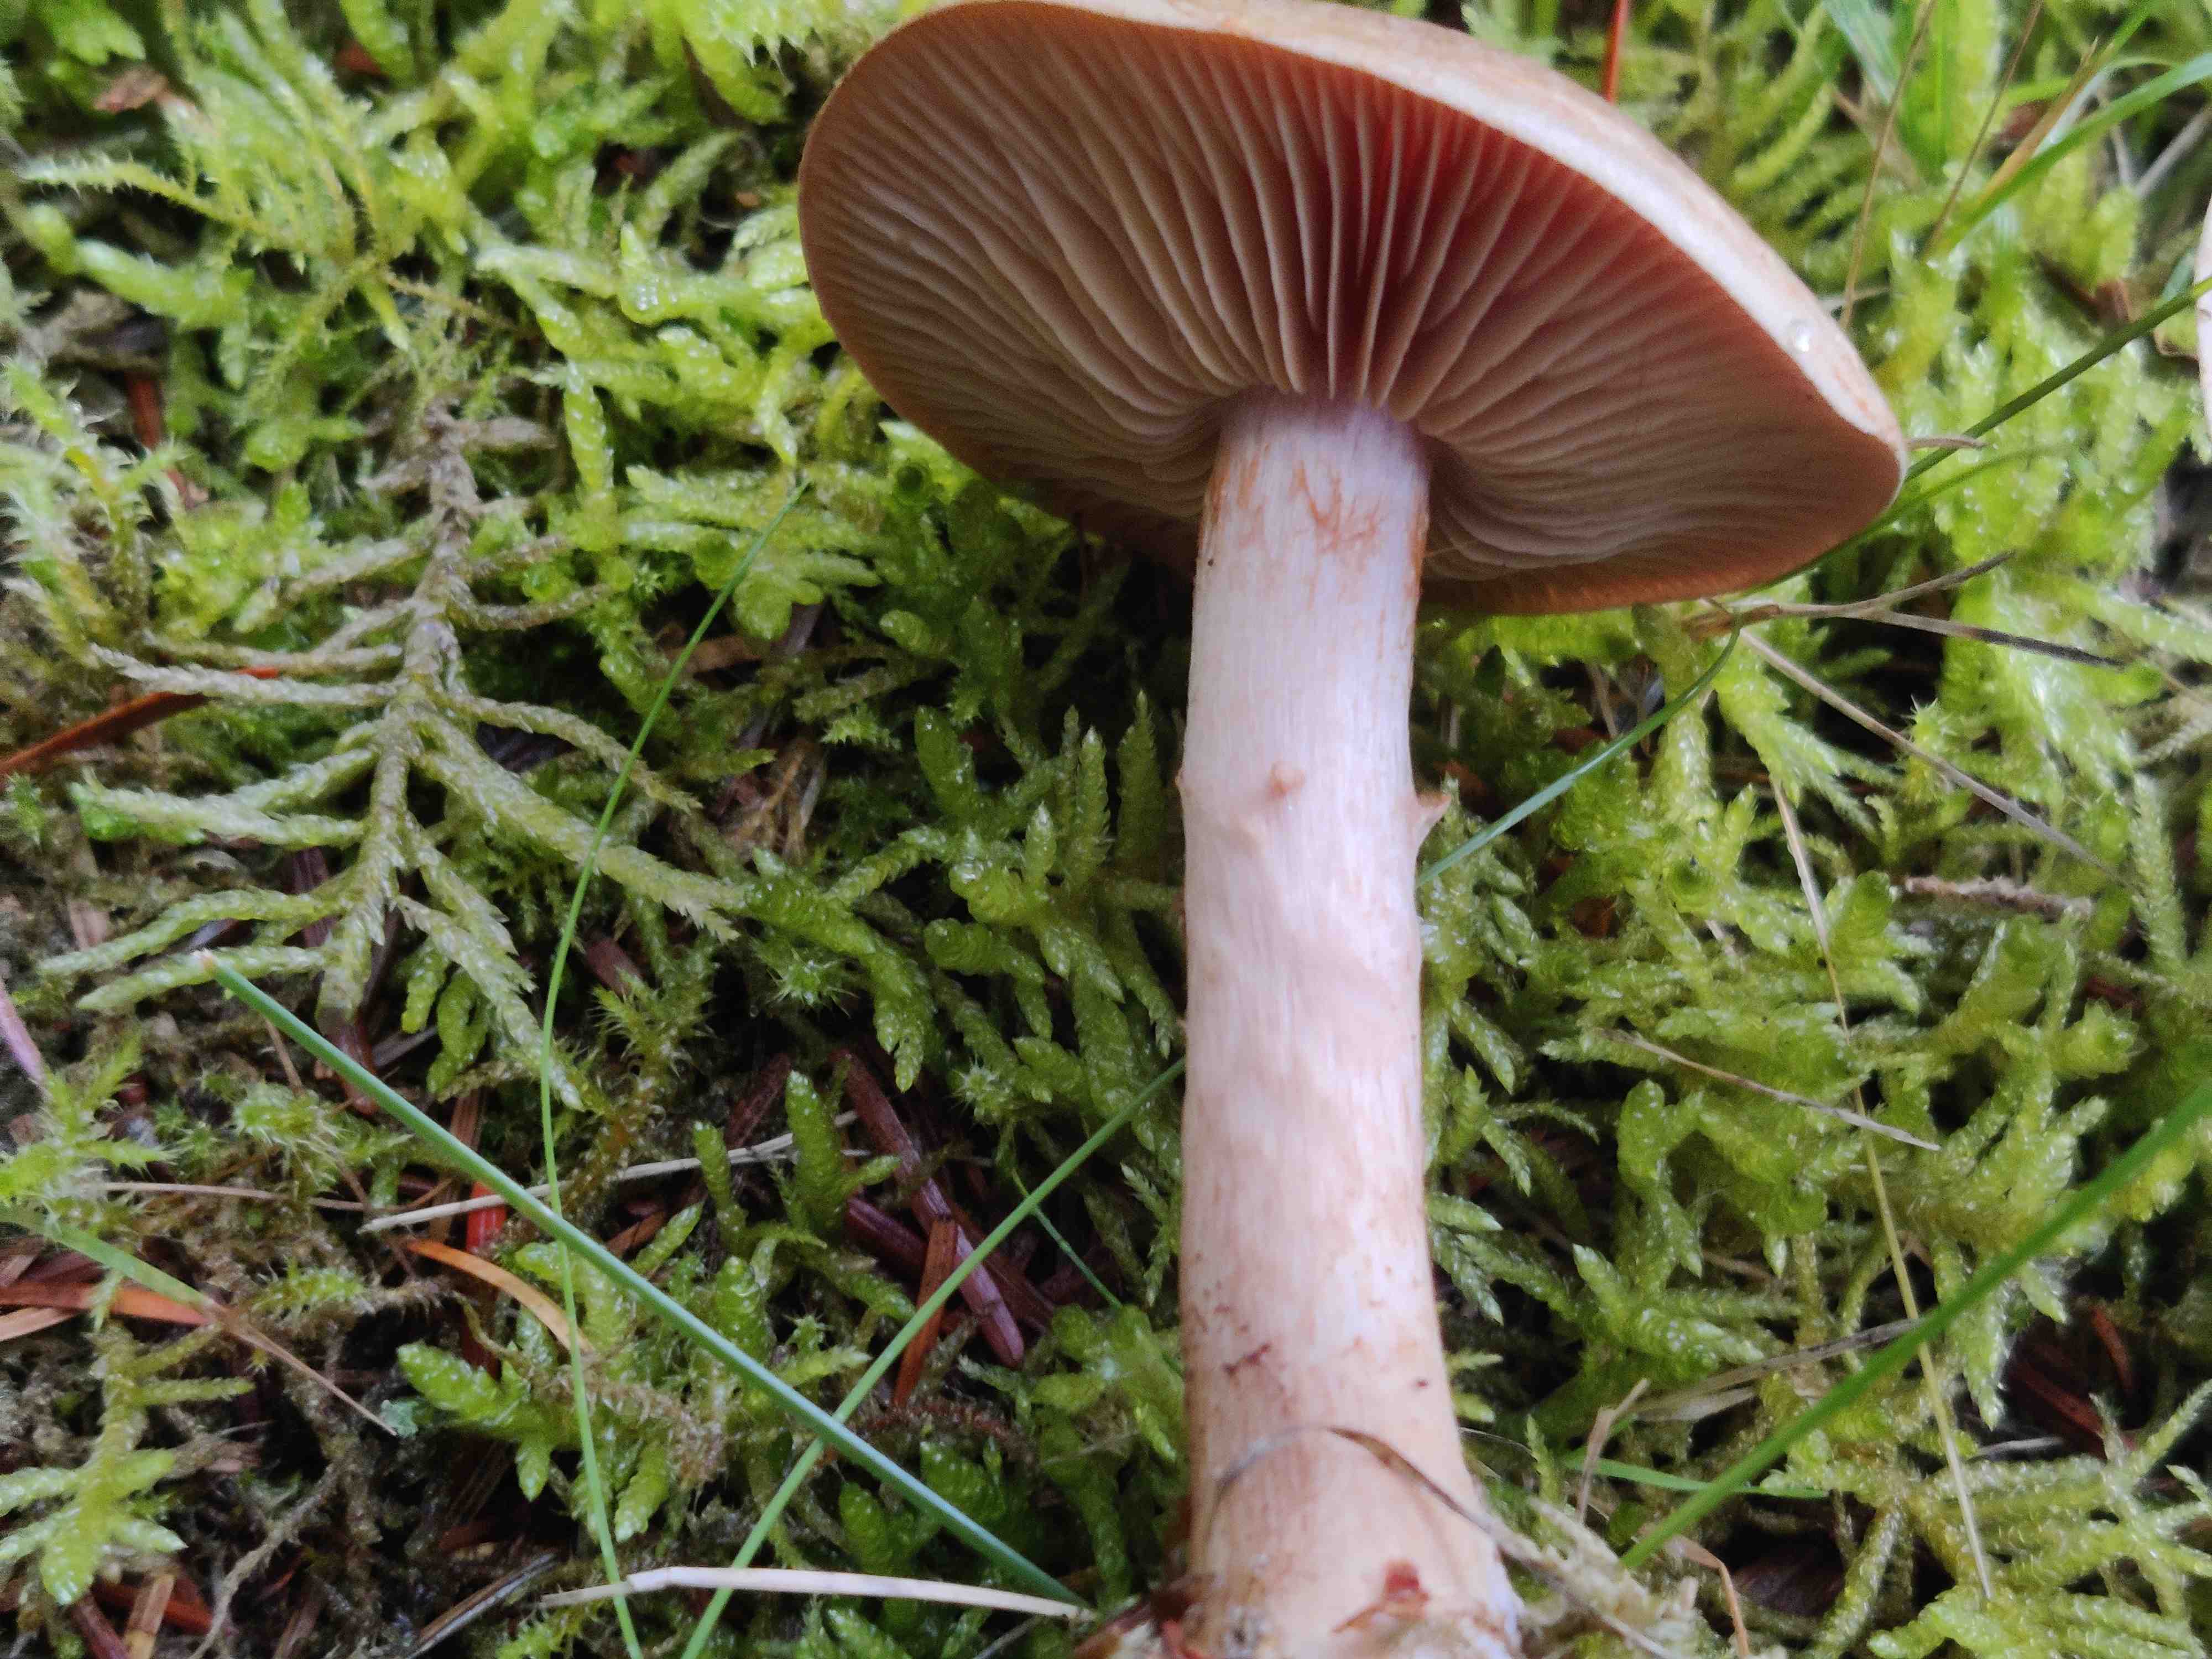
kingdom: Fungi
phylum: Basidiomycota
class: Agaricomycetes
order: Agaricales
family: Cortinariaceae
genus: Cortinarius
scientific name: Cortinarius
